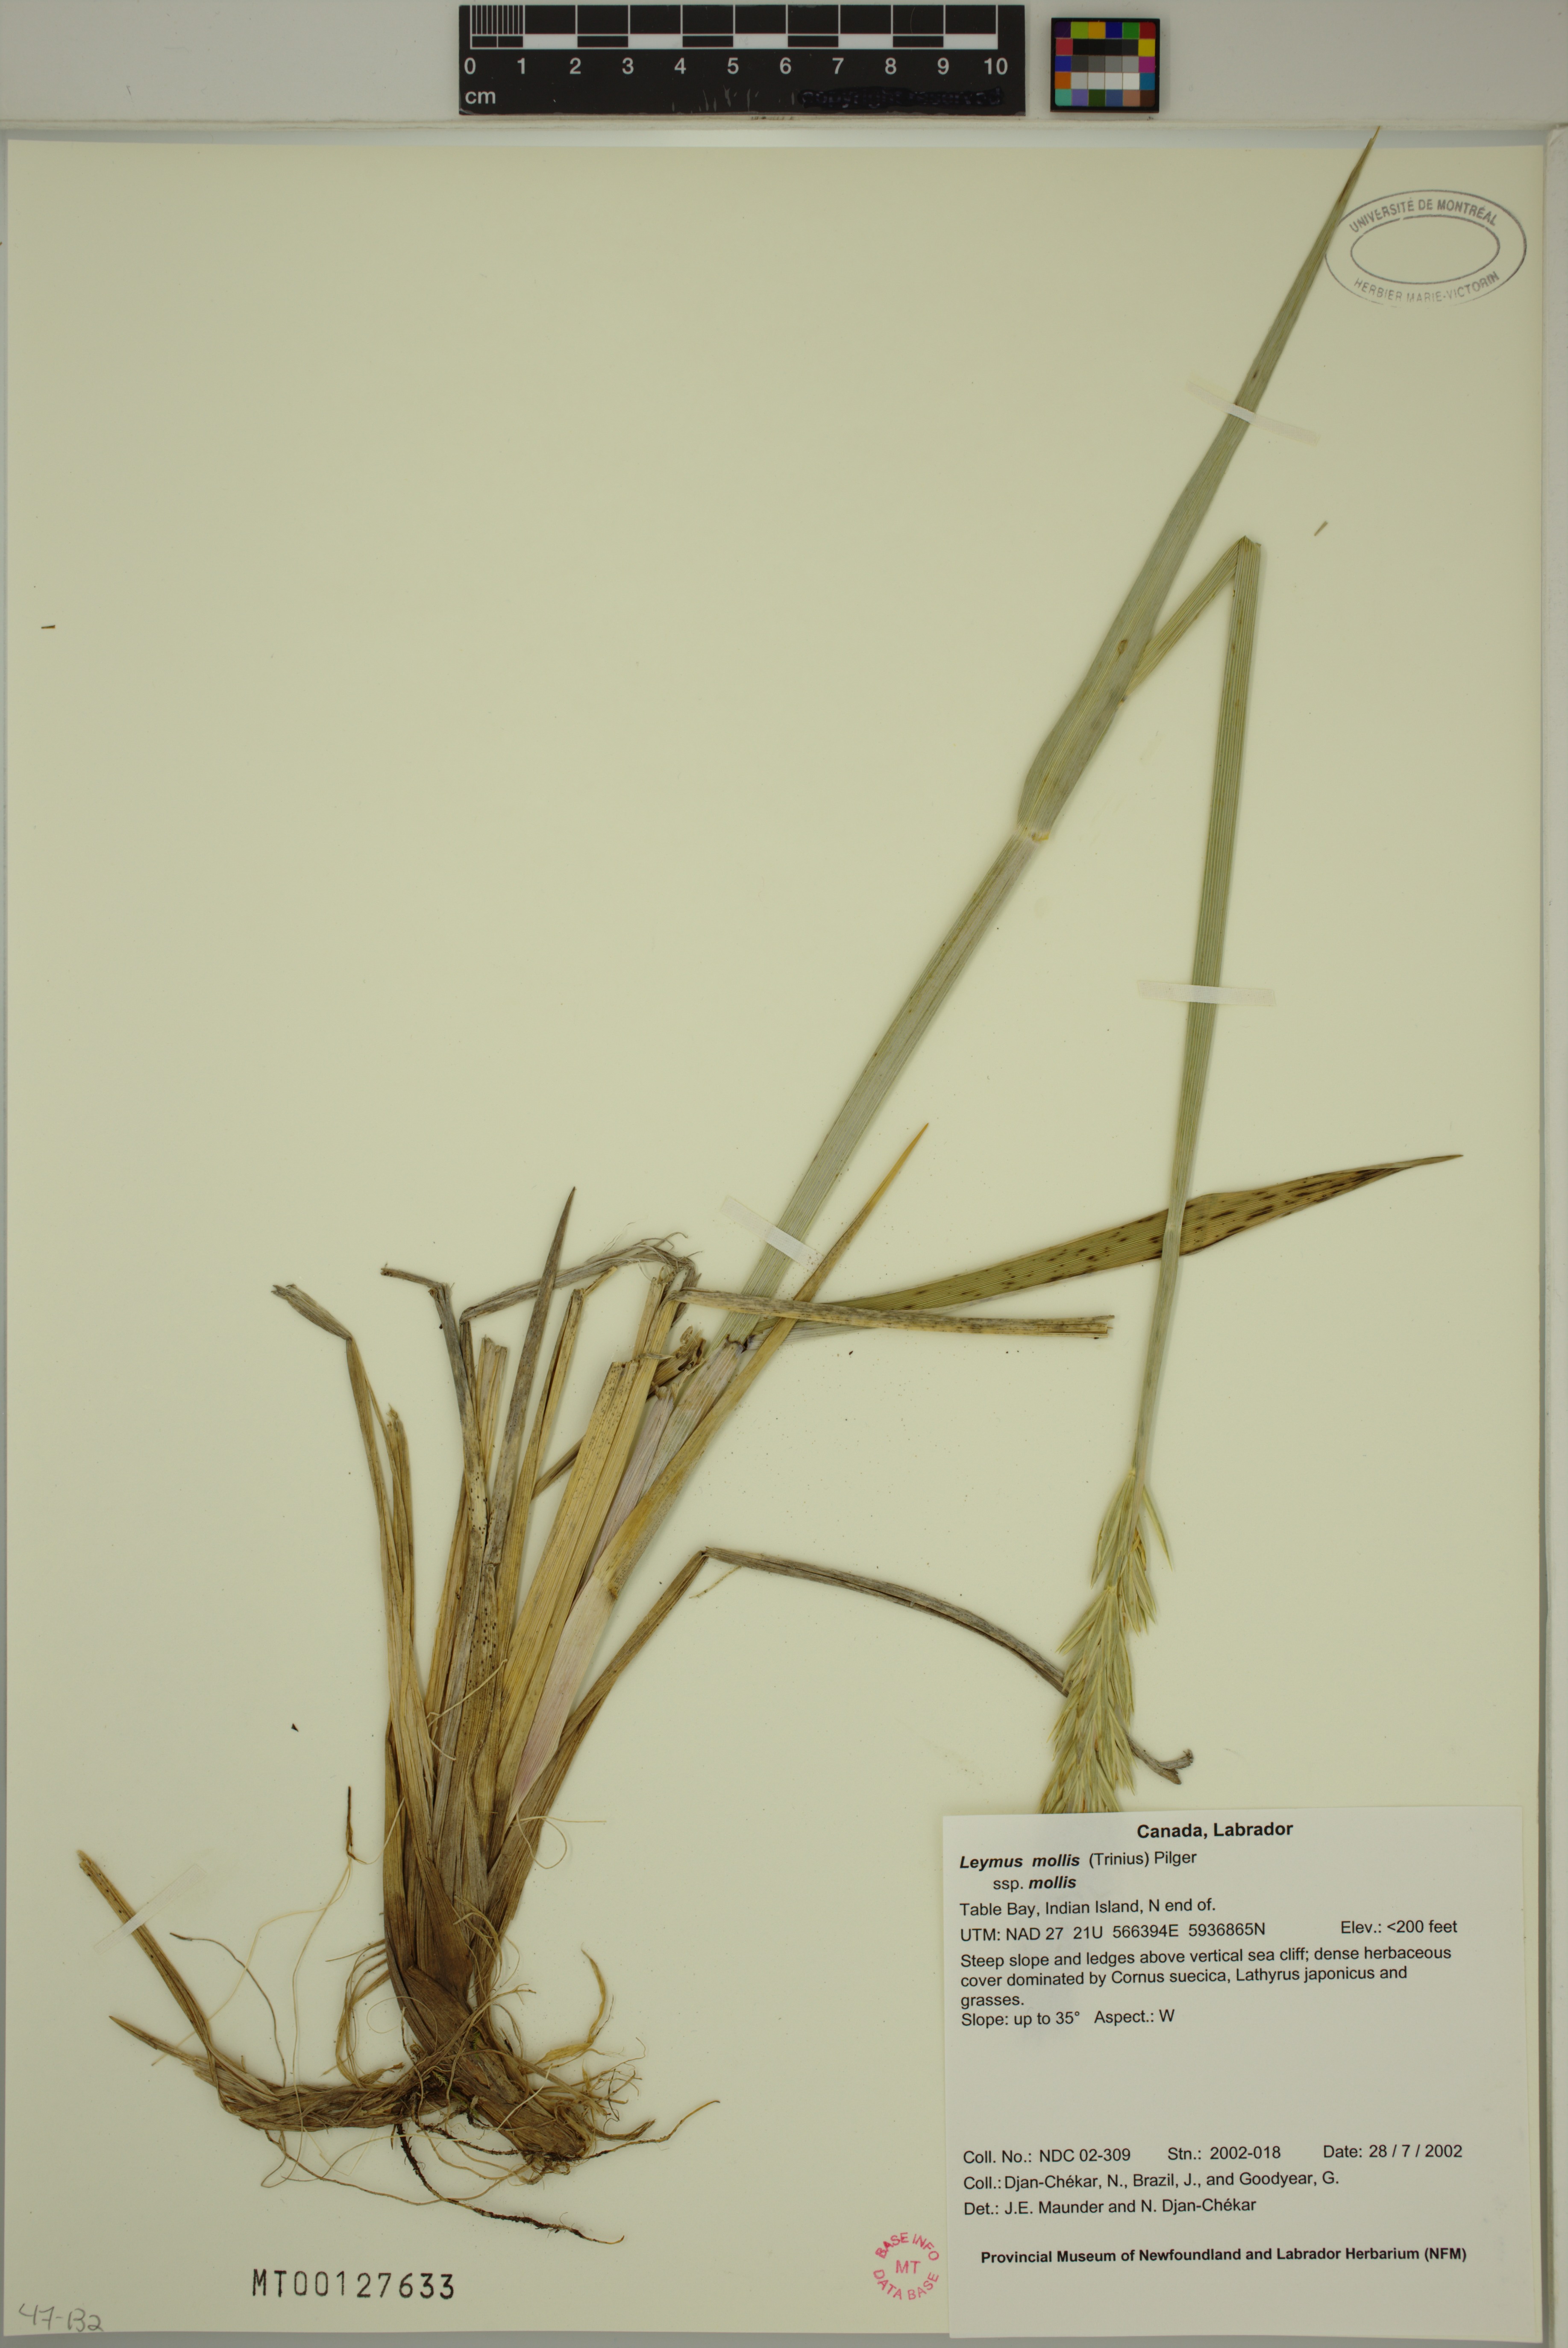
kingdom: Plantae
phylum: Tracheophyta
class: Liliopsida
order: Poales
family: Poaceae
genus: Leymus
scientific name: Leymus mollis
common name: American dune grass
